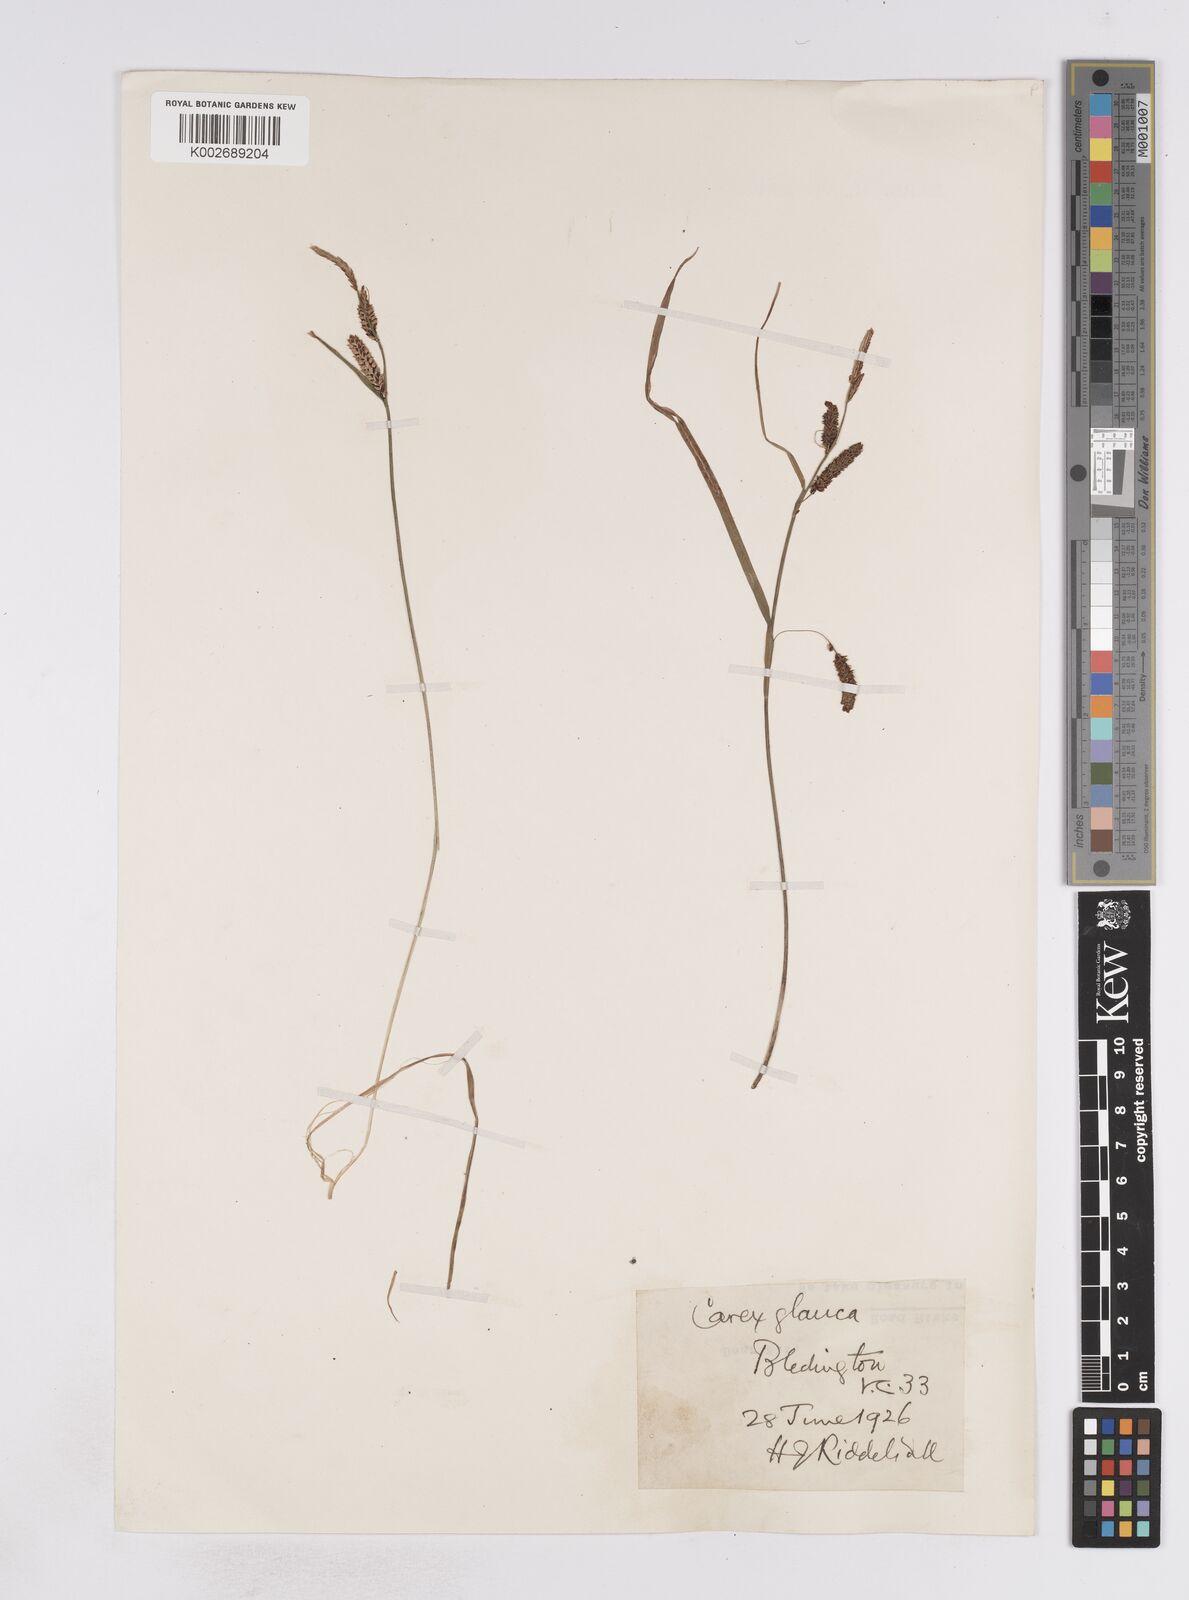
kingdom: Plantae
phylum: Tracheophyta
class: Liliopsida
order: Poales
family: Cyperaceae
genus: Carex
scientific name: Carex flacca
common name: Glaucous sedge
